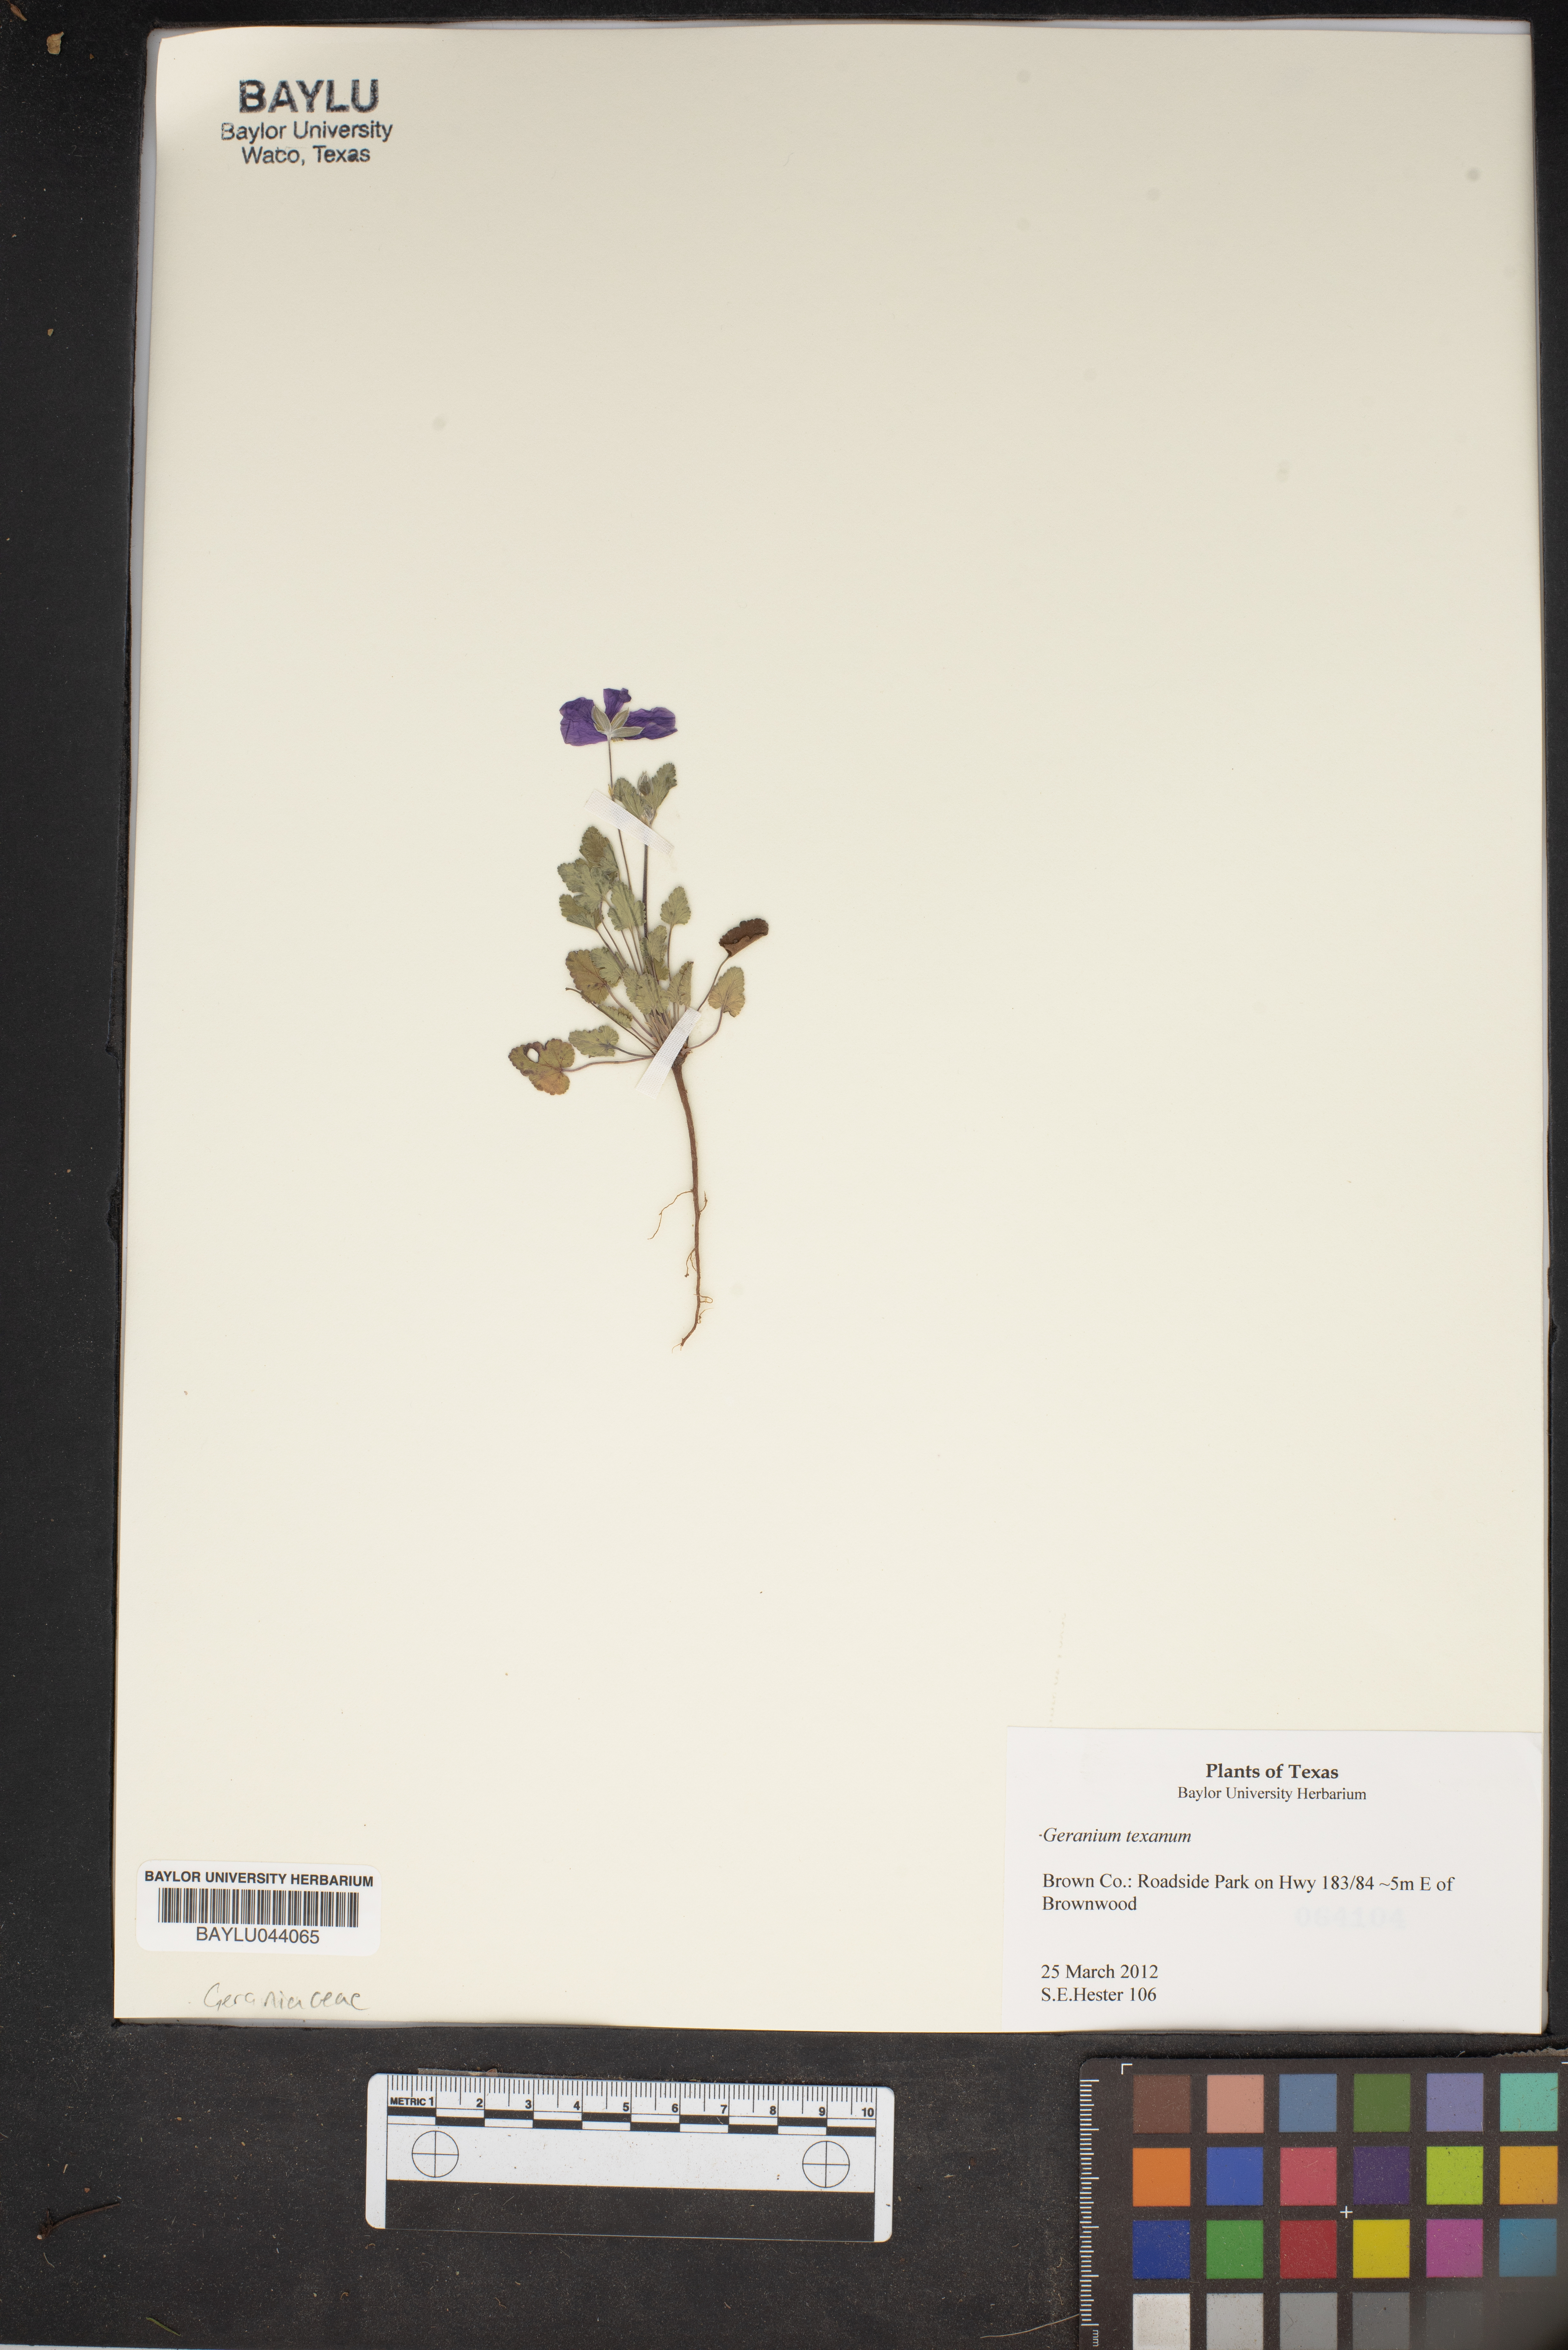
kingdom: Plantae
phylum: Tracheophyta
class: Magnoliopsida
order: Geraniales
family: Geraniaceae
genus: Geranium
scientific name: Geranium texanum
